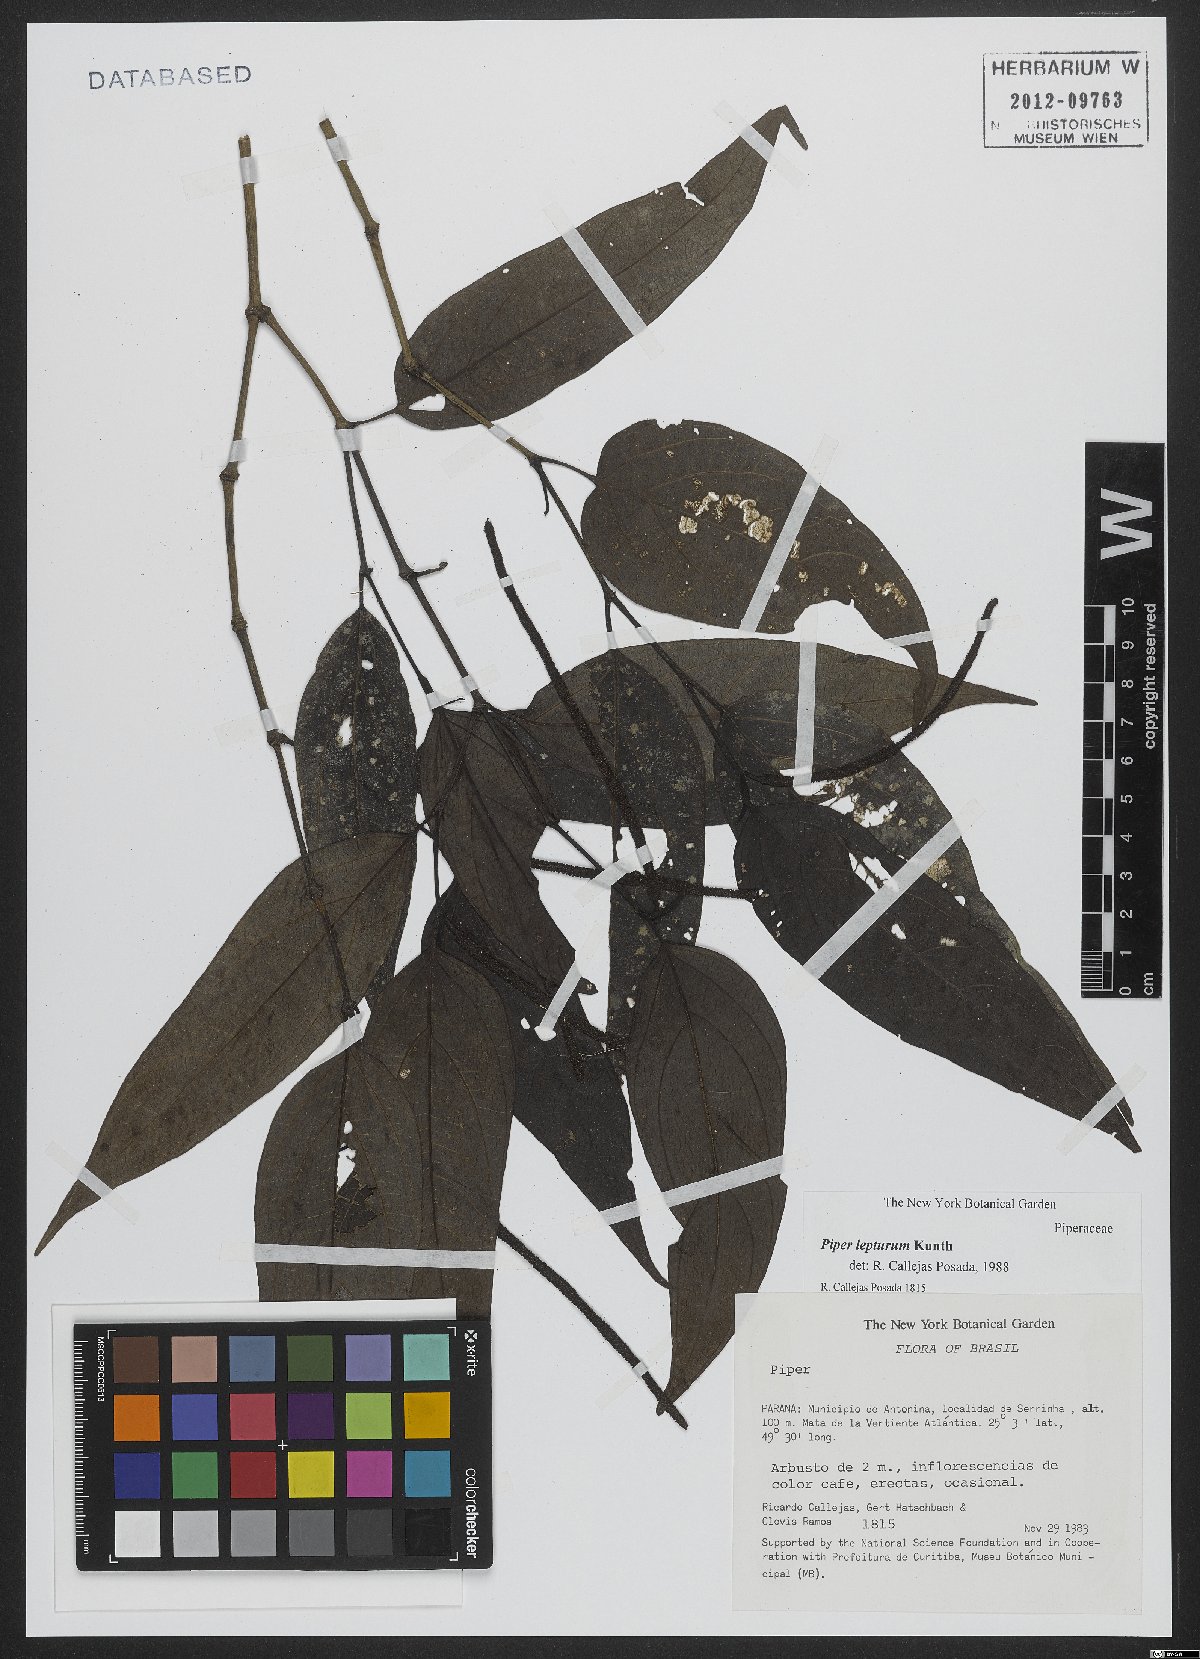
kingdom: Plantae
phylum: Tracheophyta
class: Magnoliopsida
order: Piperales
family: Piperaceae
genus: Piper
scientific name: Piper lepturum
